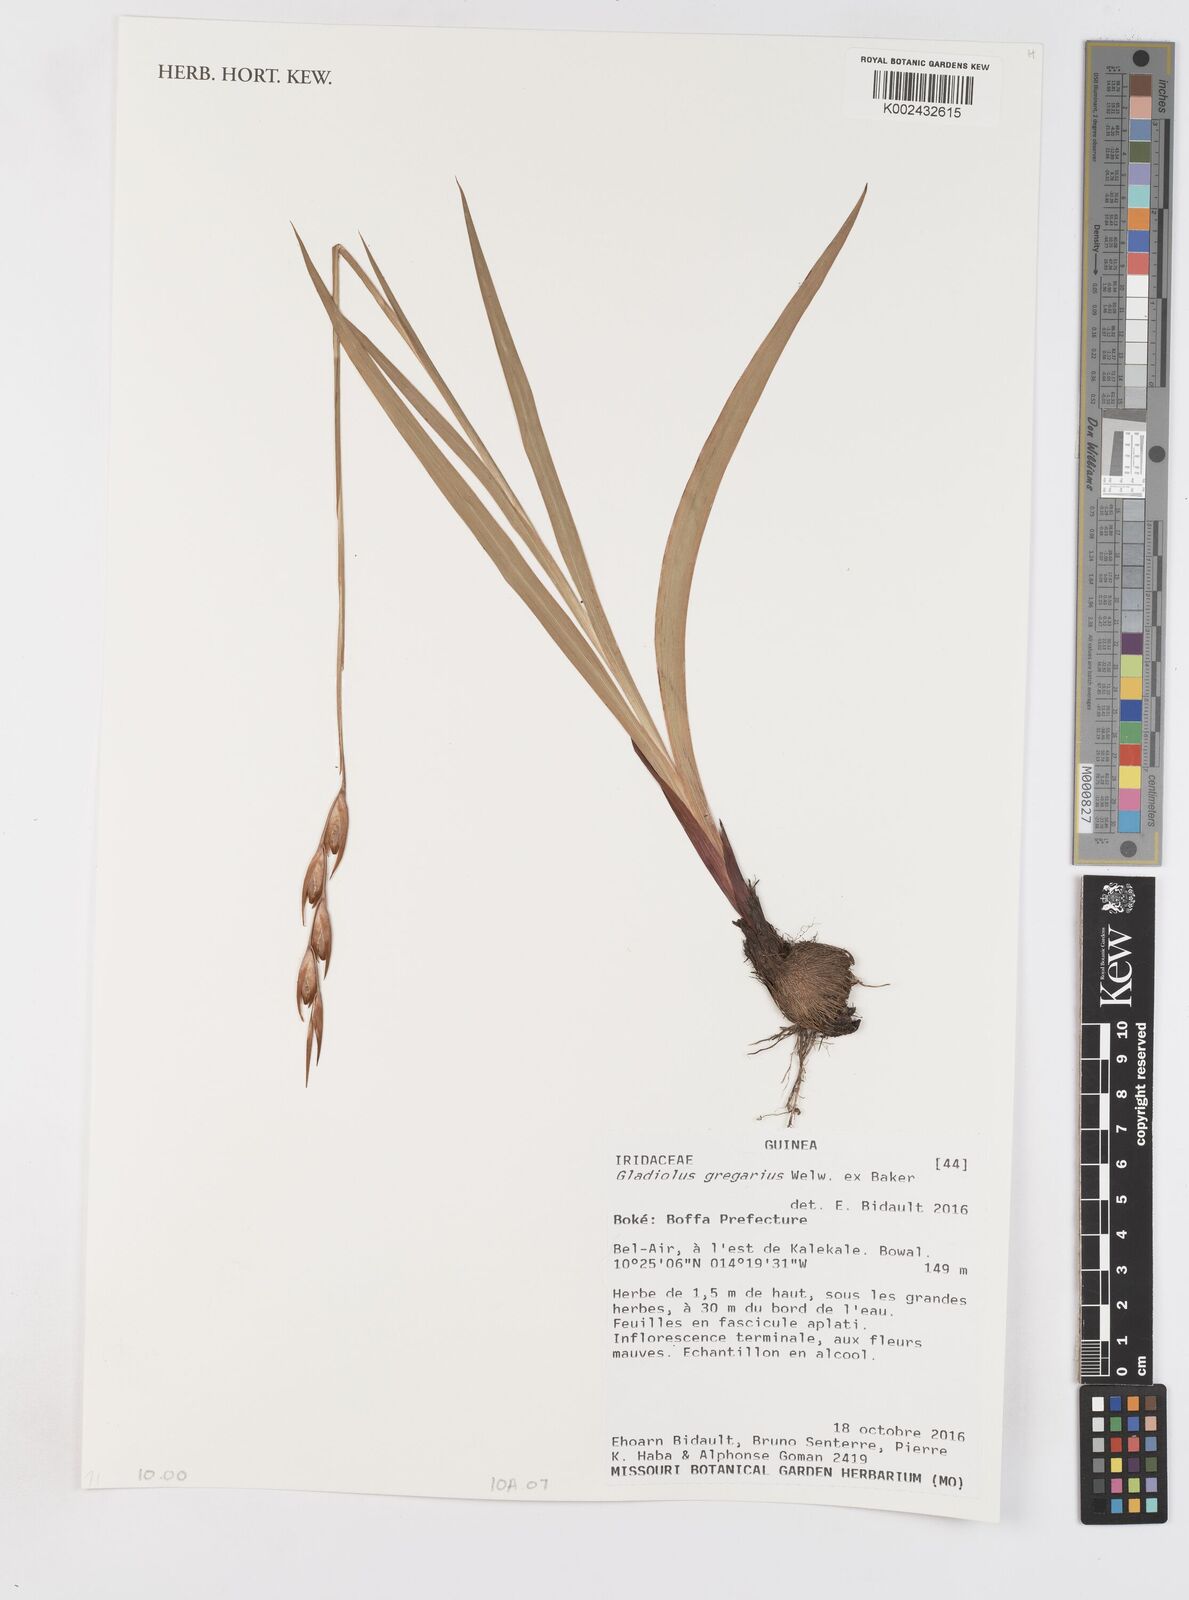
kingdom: Plantae
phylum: Tracheophyta
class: Liliopsida
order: Asparagales
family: Iridaceae
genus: Gladiolus
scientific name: Gladiolus gregarius
